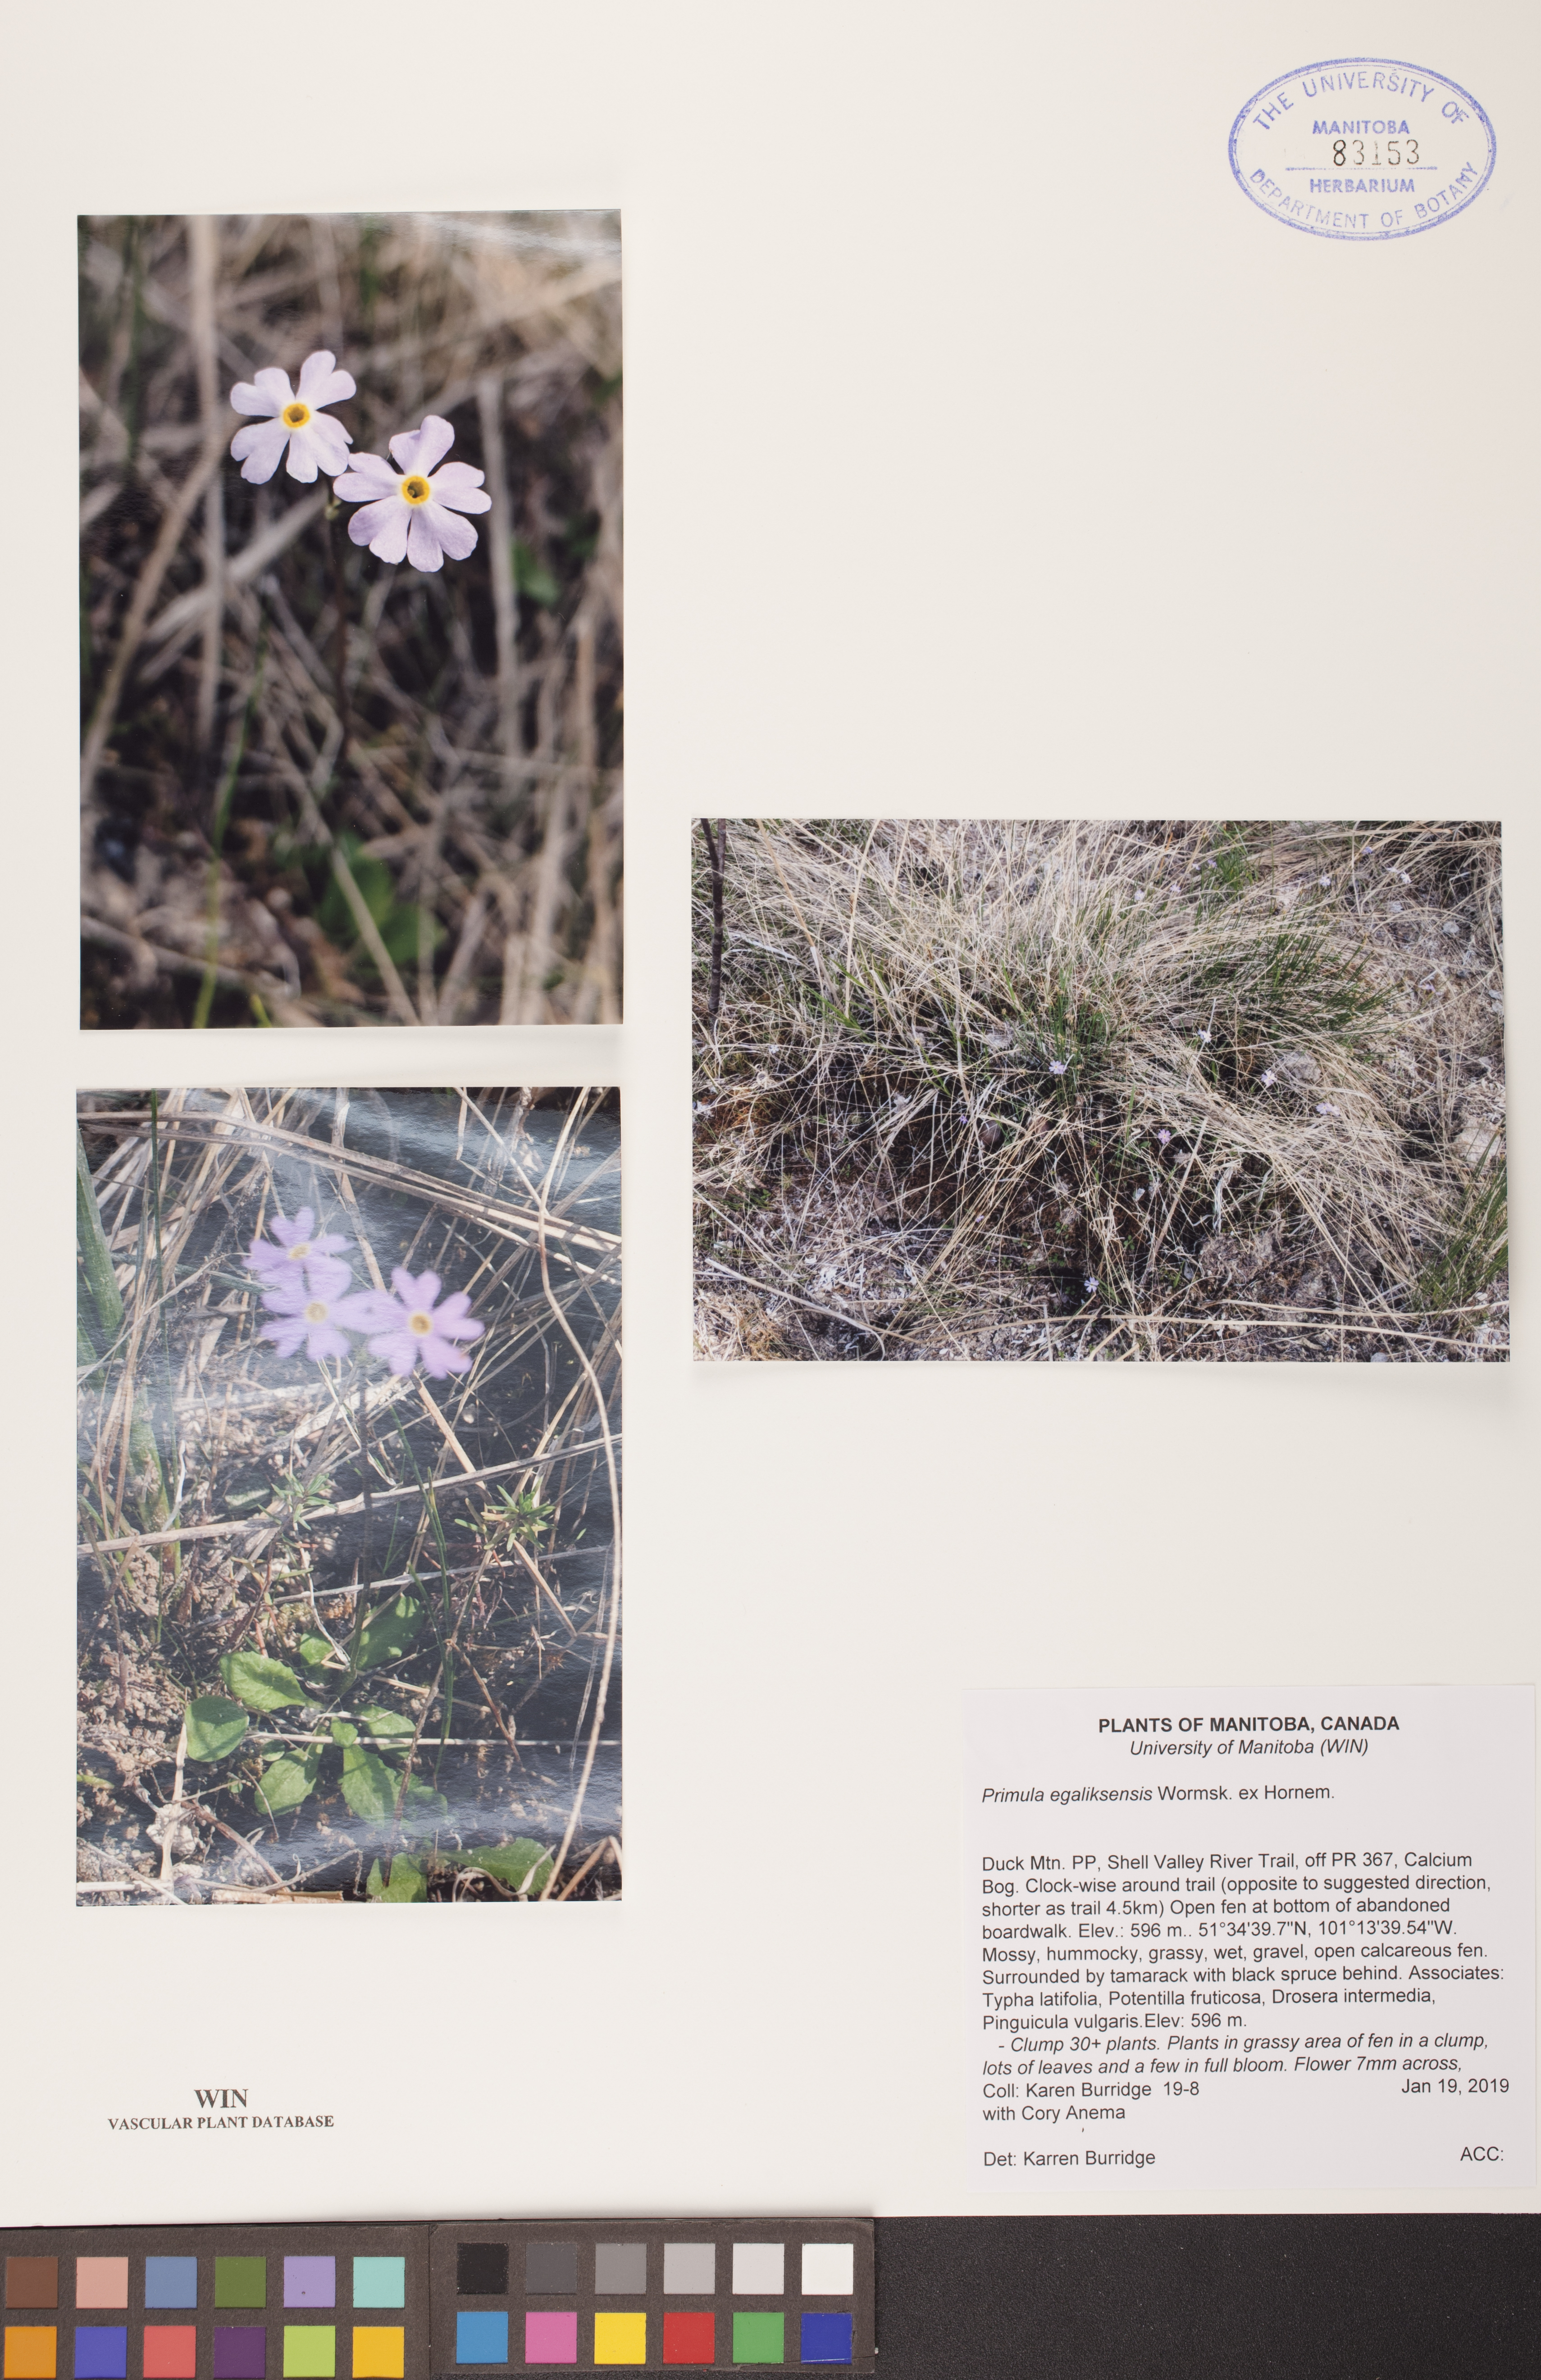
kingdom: Plantae
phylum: Tracheophyta
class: Magnoliopsida
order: Ericales
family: Primulaceae
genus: Primula
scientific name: Primula egaliksensis
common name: Greenland primrose
